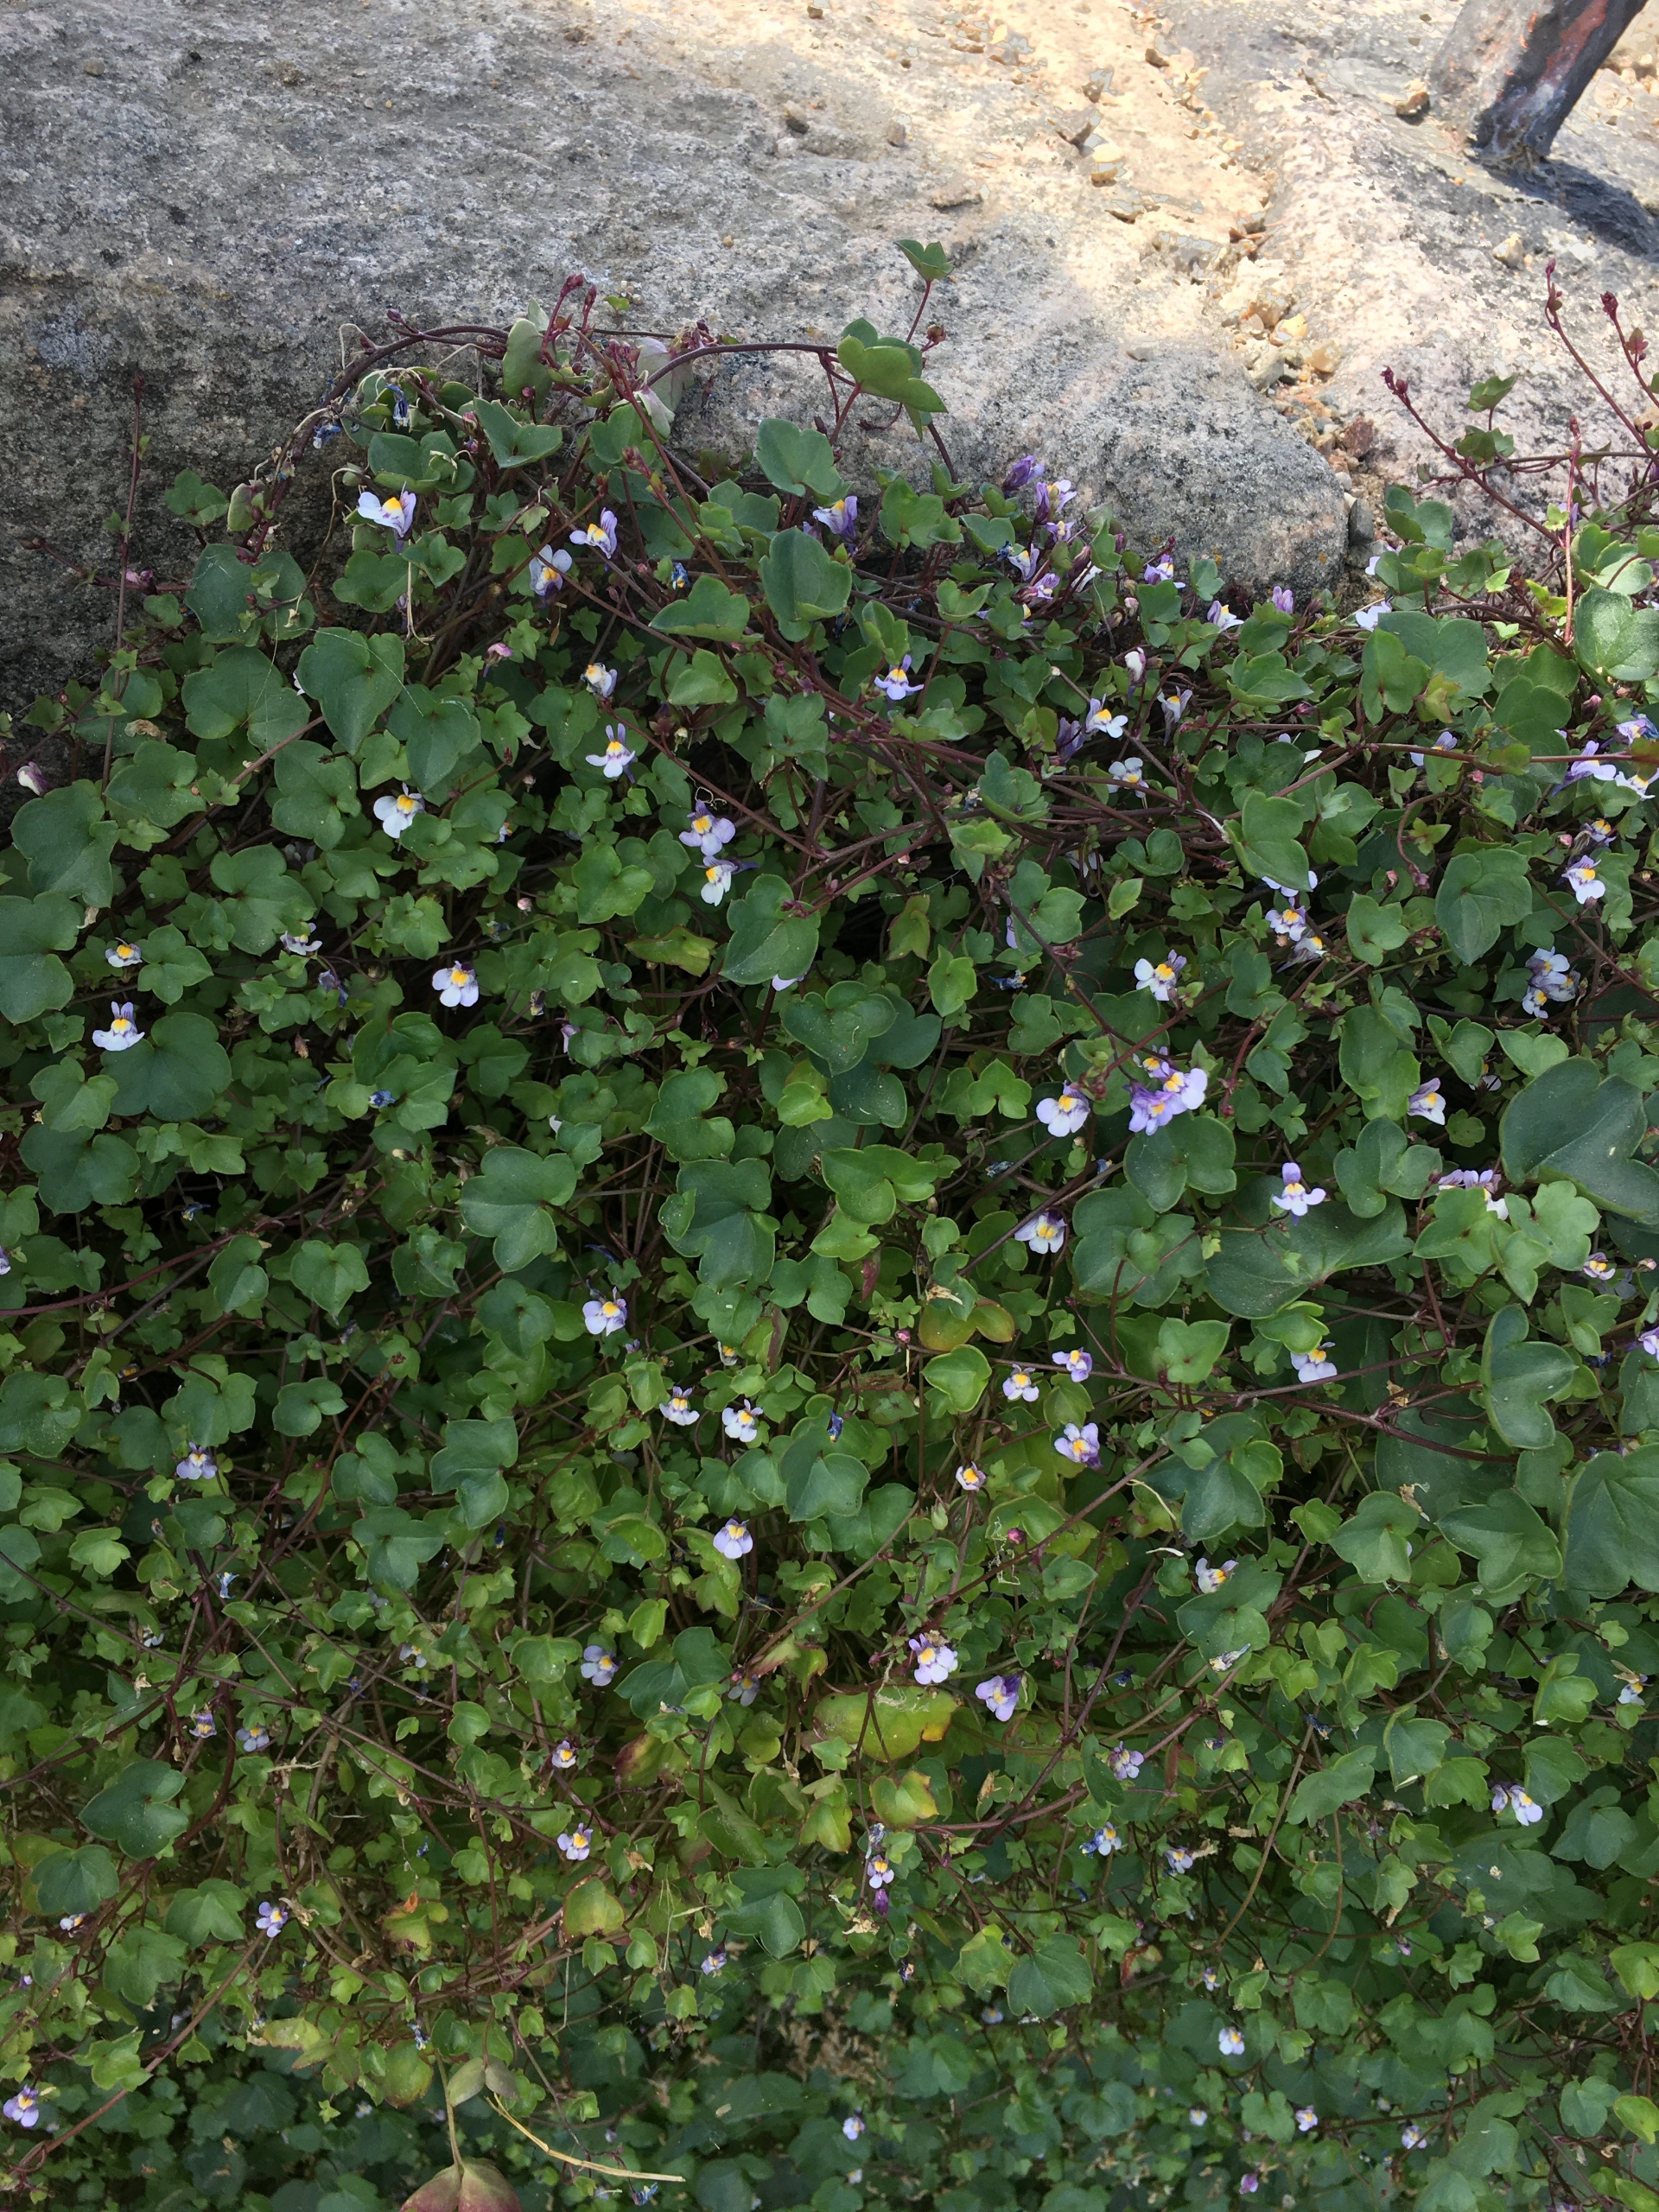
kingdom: Plantae
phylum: Tracheophyta
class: Magnoliopsida
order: Lamiales
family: Plantaginaceae
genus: Cymbalaria
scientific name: Cymbalaria muralis
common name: Vedbend-torskemund
